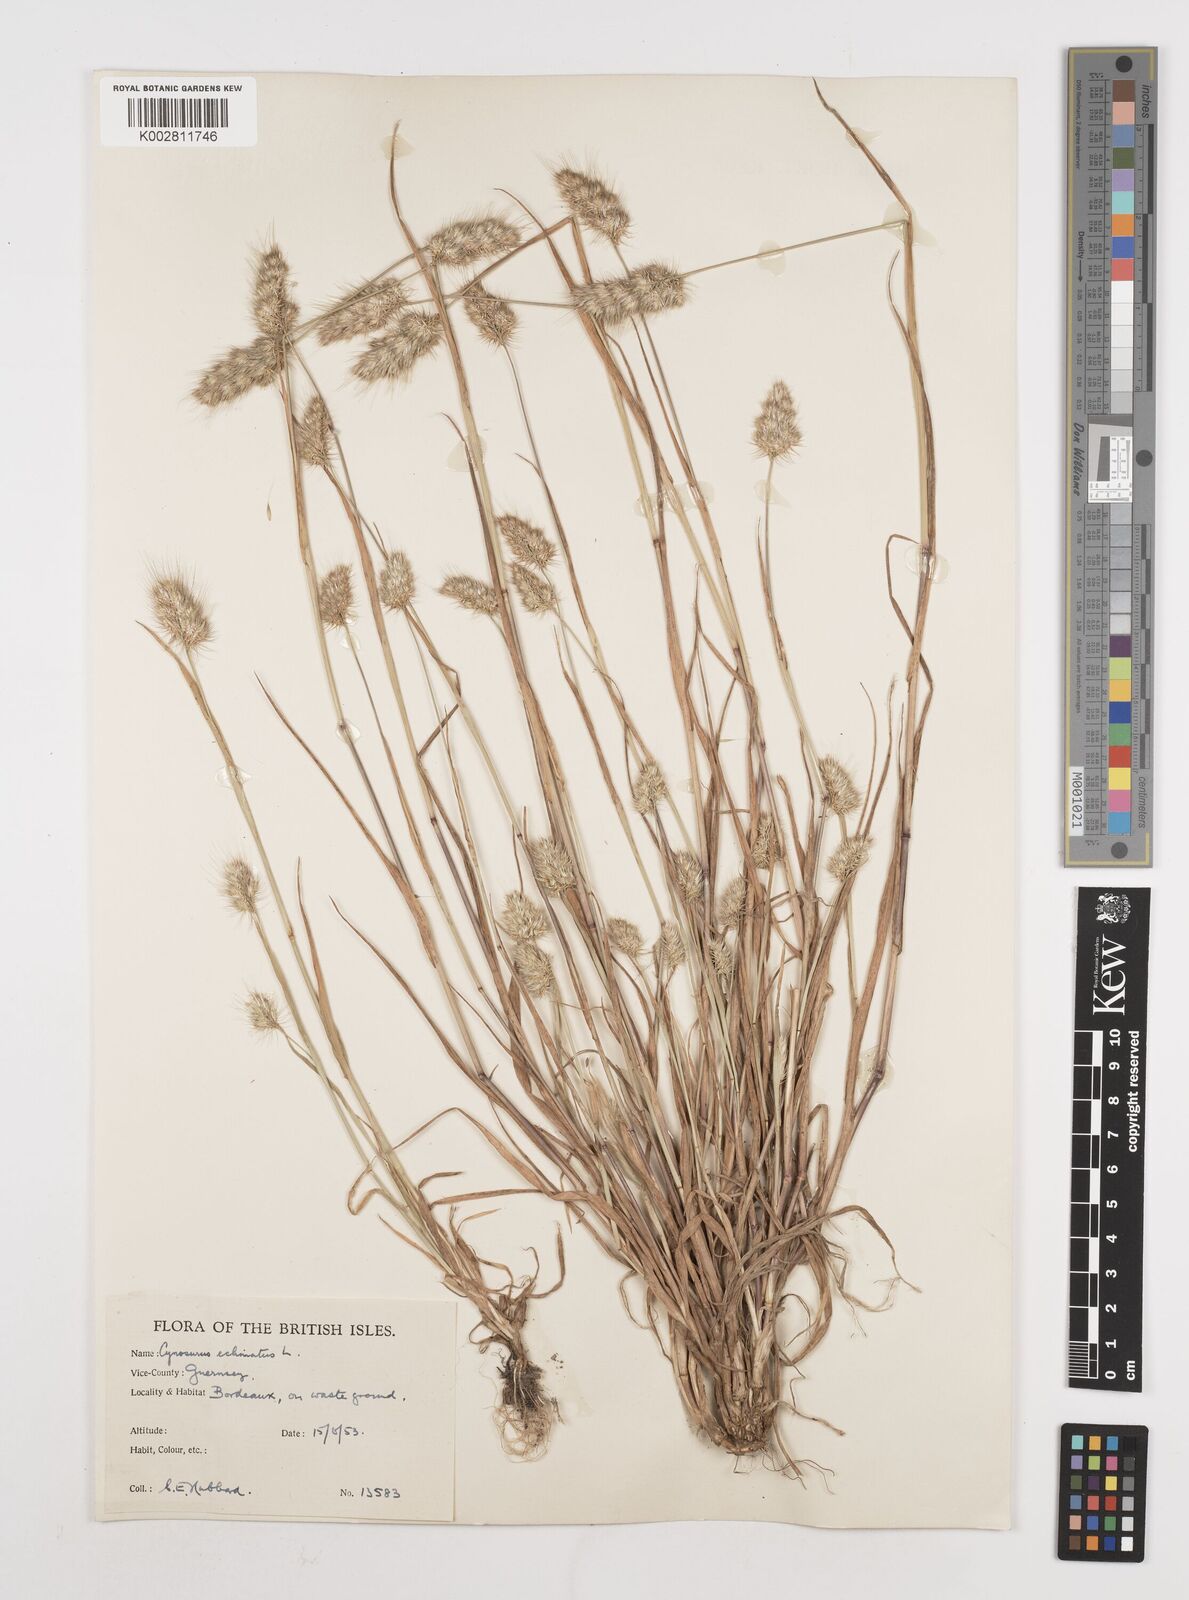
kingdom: Plantae
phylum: Tracheophyta
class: Liliopsida
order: Poales
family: Poaceae
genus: Cynosurus
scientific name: Cynosurus echinatus
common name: Rough dog's-tail
